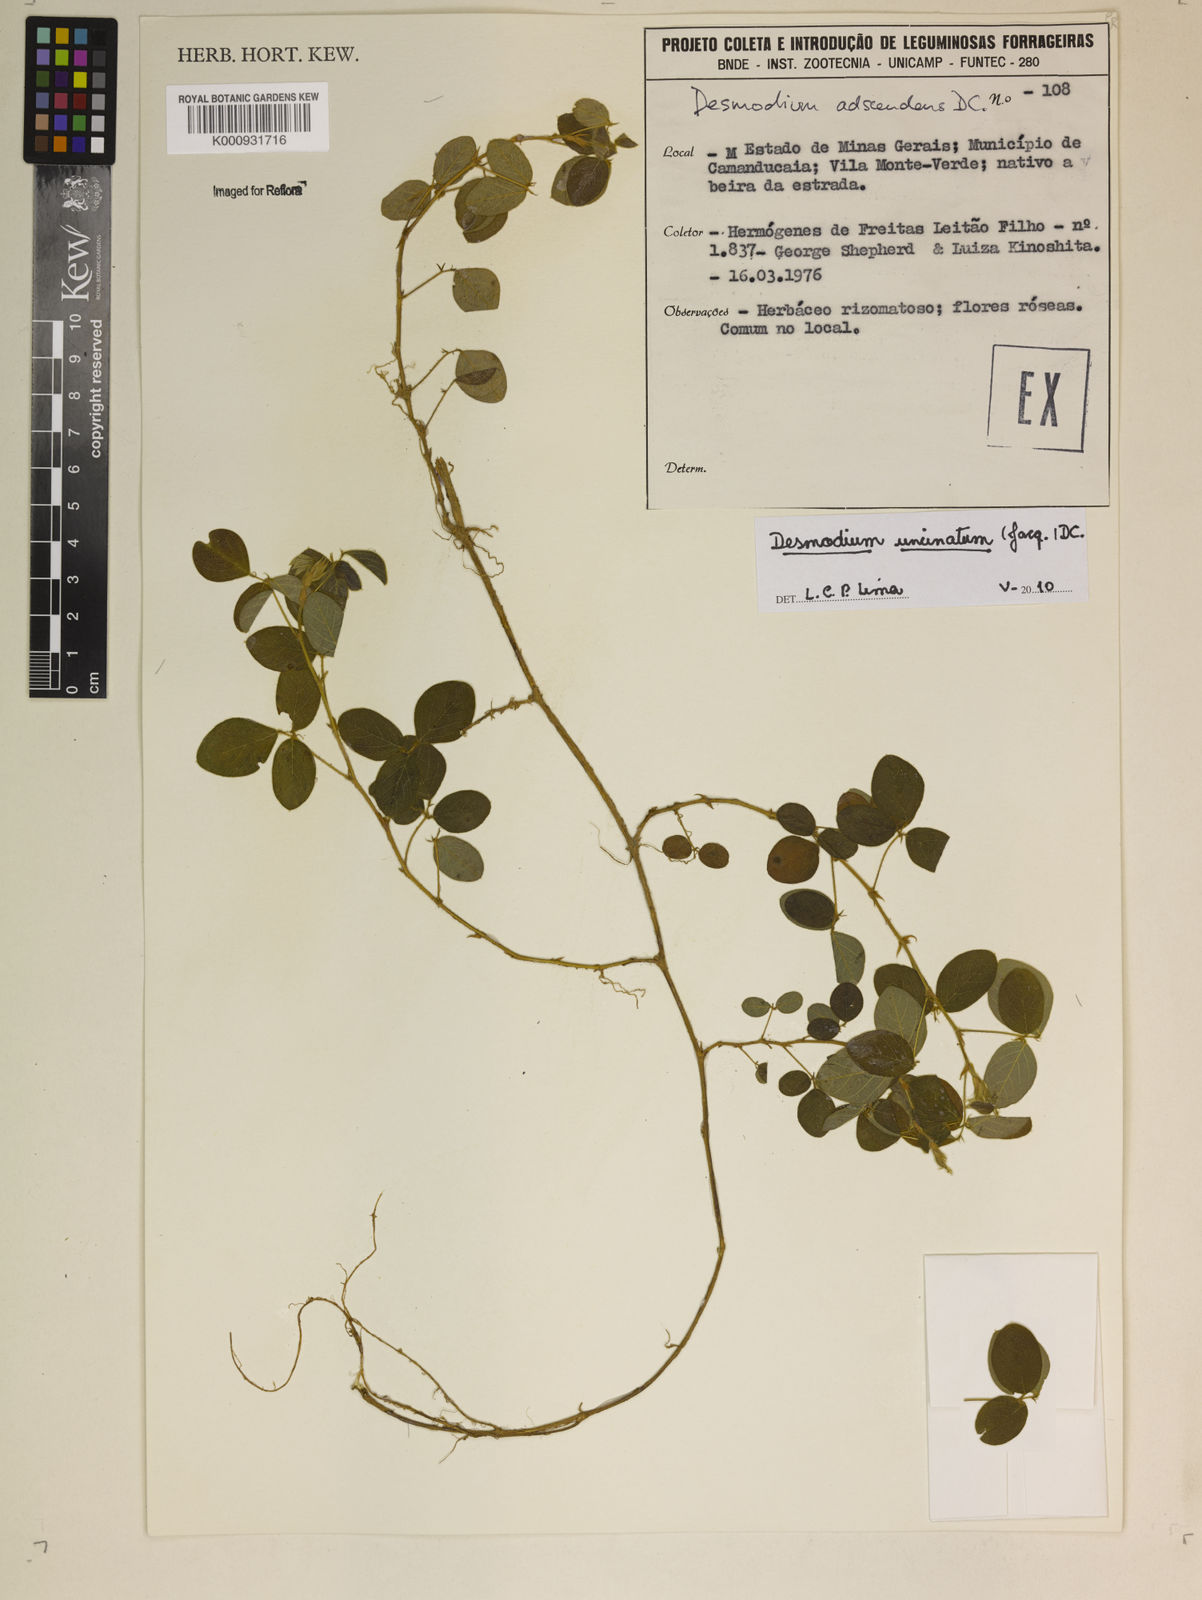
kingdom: Plantae
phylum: Tracheophyta
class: Magnoliopsida
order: Fabales
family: Fabaceae
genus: Desmodium
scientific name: Desmodium uncinatum
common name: Silverleaf desmodium
